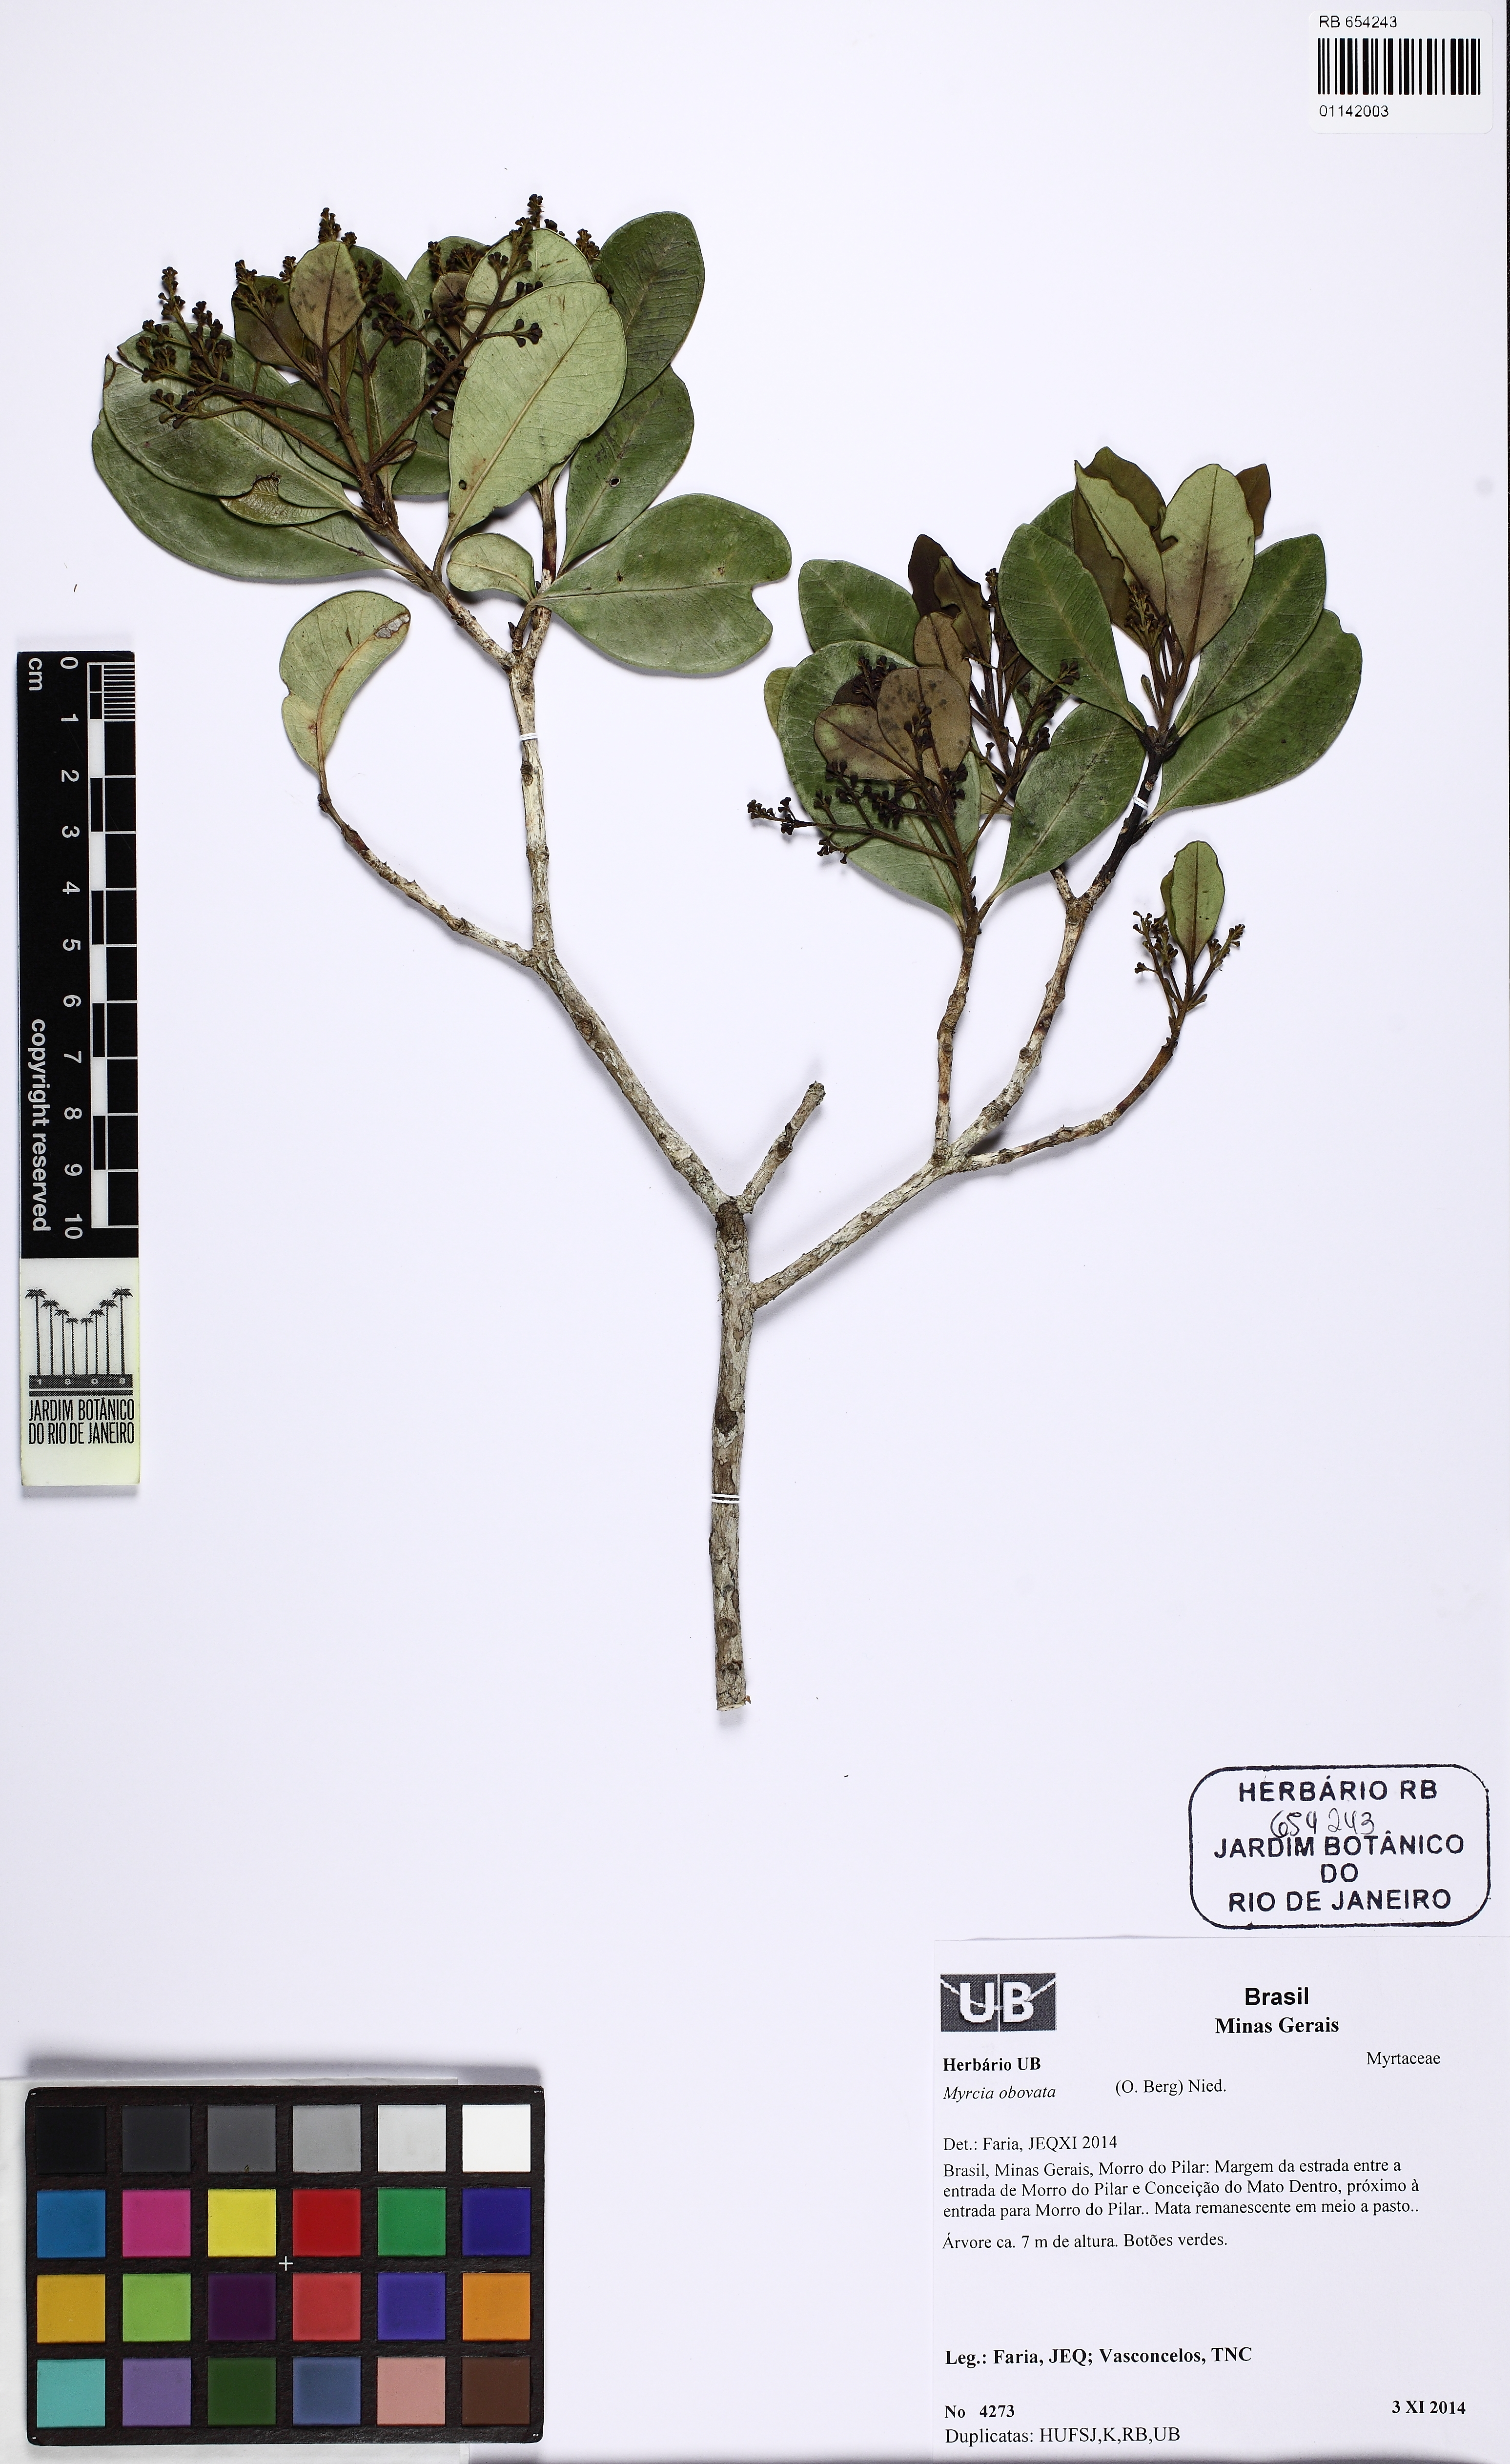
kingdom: Plantae
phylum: Tracheophyta
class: Magnoliopsida
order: Myrtales
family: Myrtaceae
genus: Myrcia
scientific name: Myrcia coelosepala
